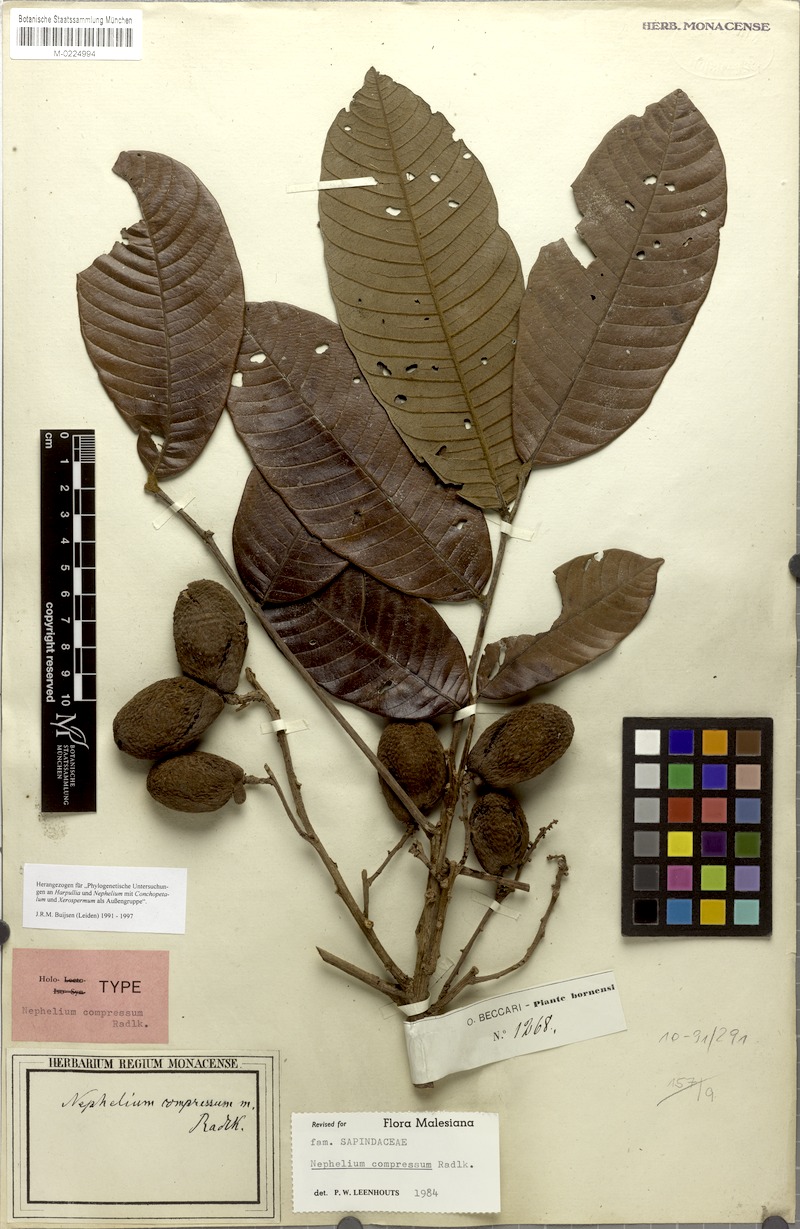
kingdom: Plantae
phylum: Tracheophyta
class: Magnoliopsida
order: Sapindales
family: Sapindaceae
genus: Nephelium
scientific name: Nephelium compressum
